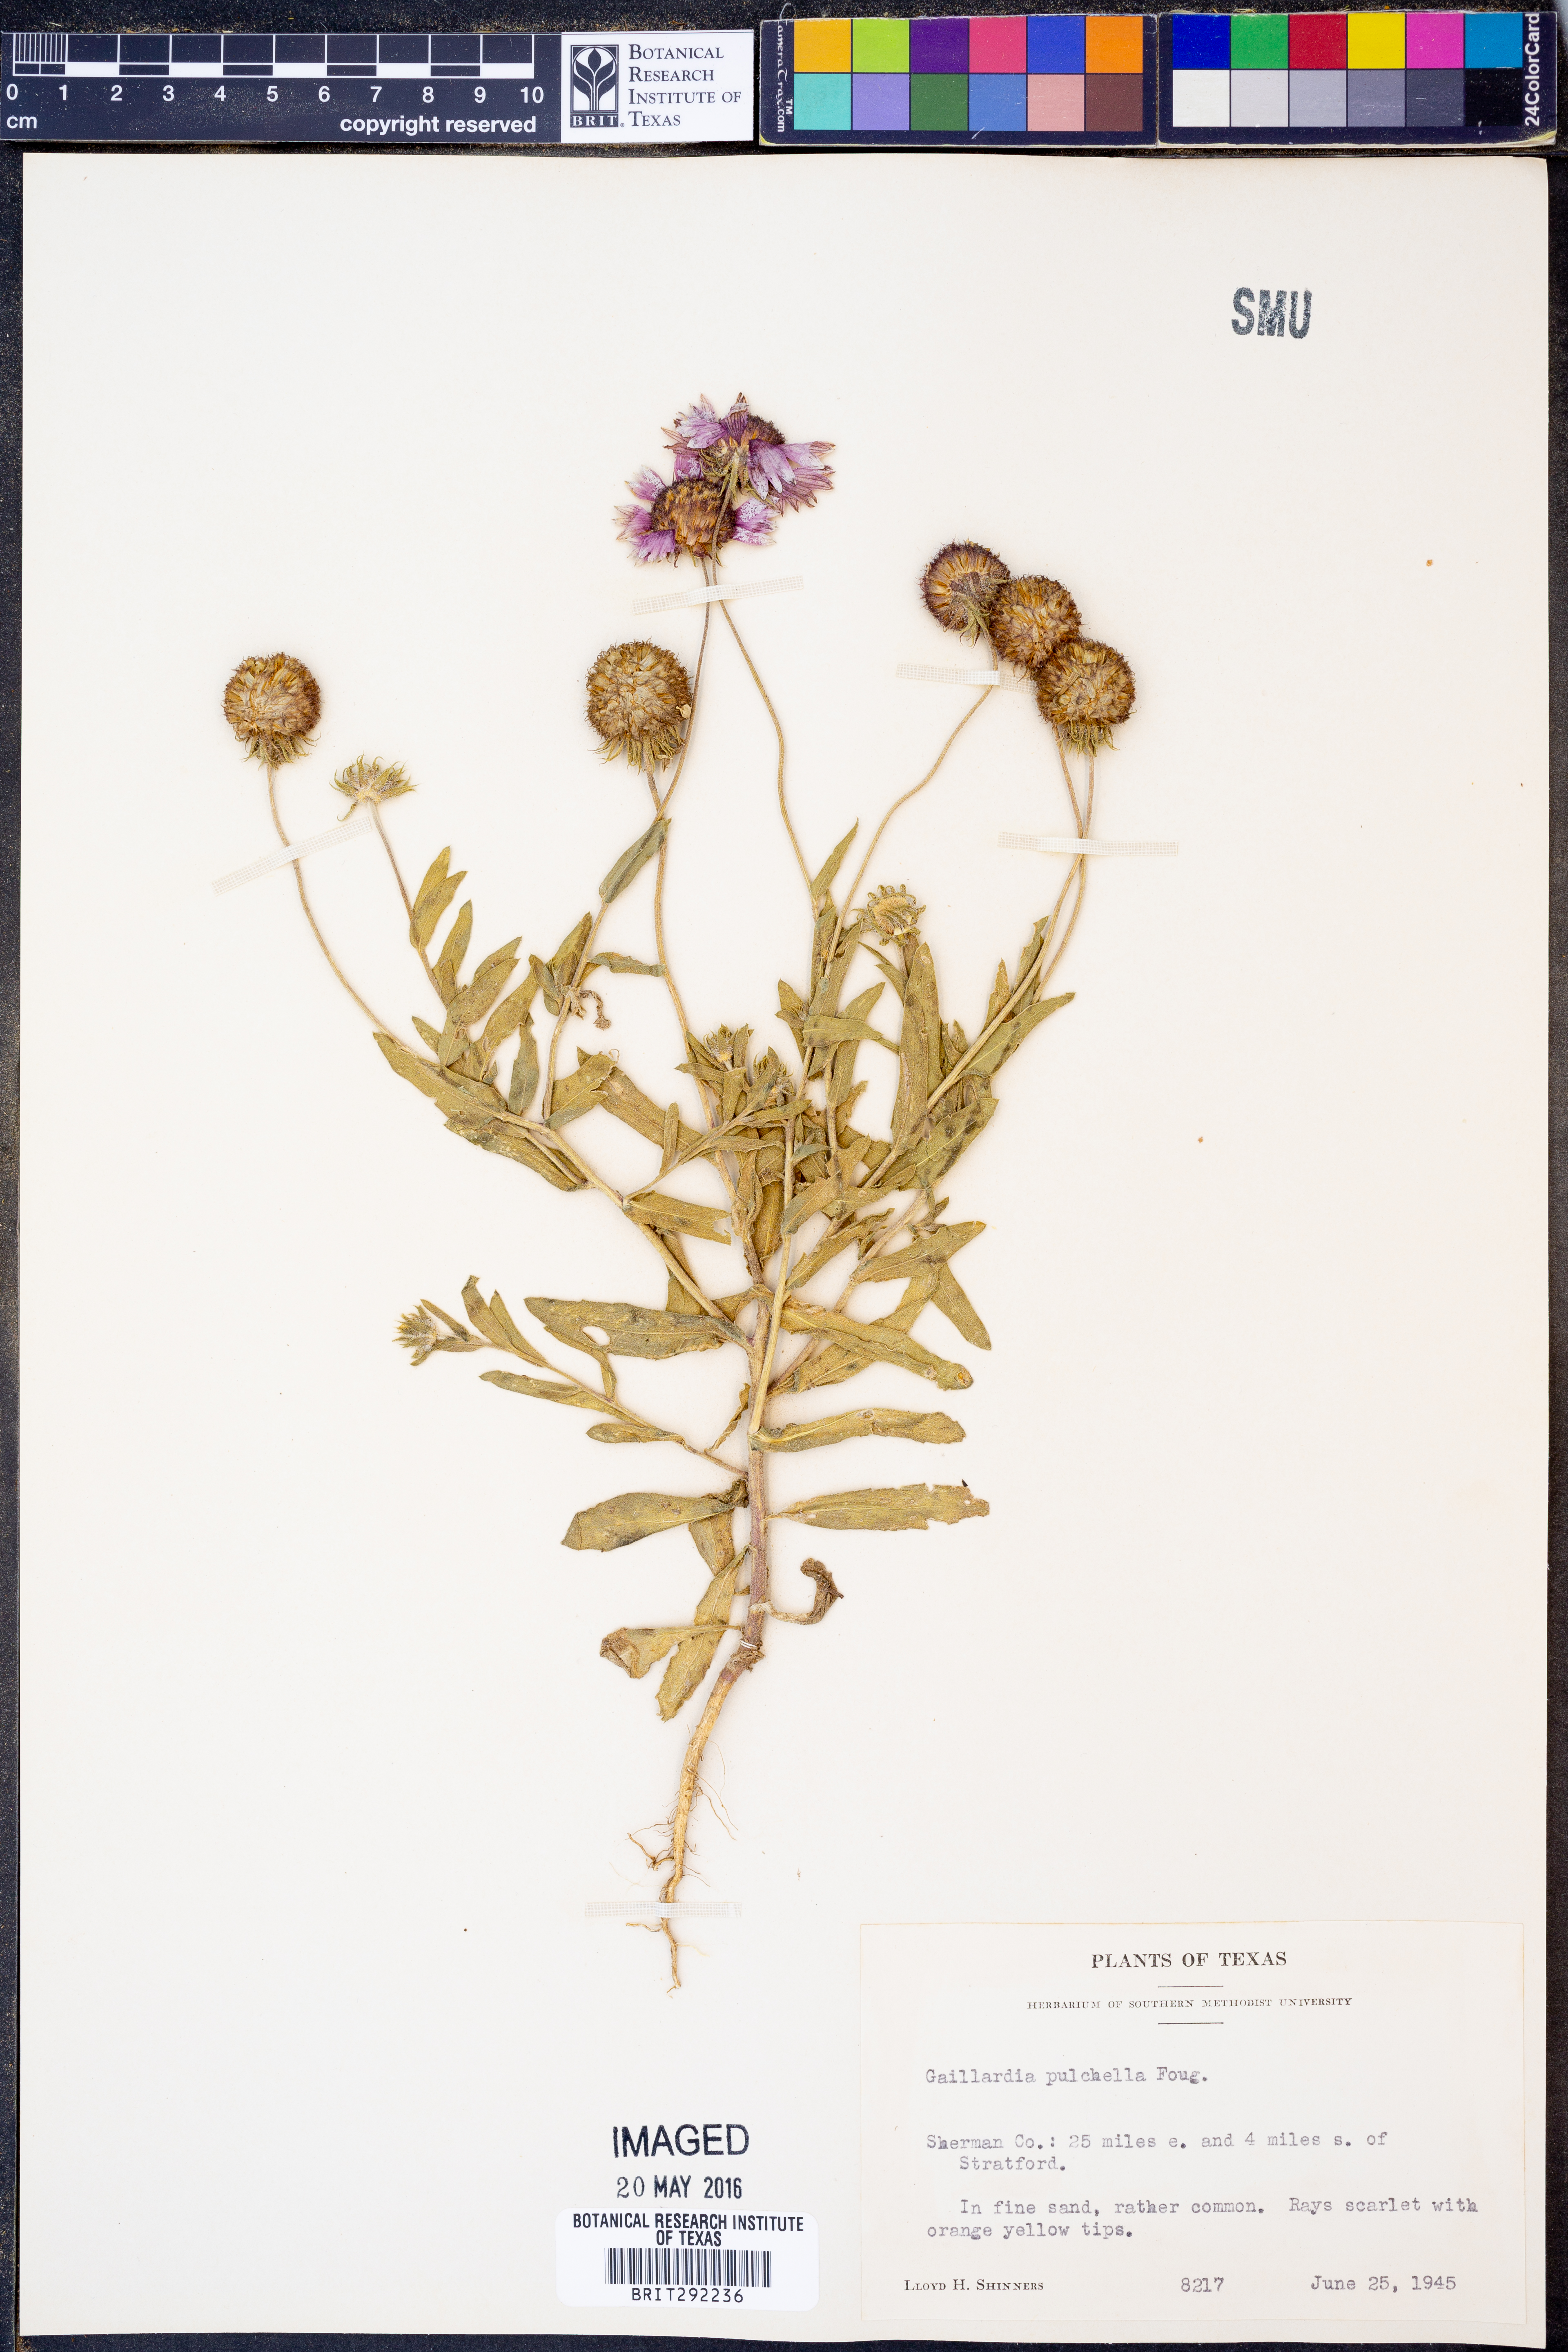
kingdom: Plantae
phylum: Tracheophyta
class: Magnoliopsida
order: Asterales
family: Asteraceae
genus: Gaillardia
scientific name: Gaillardia pulchella
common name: Firewheel
